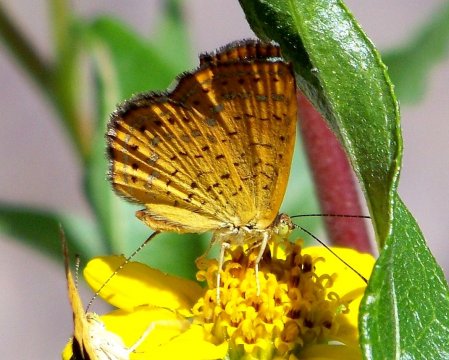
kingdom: Animalia
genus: Calephelis
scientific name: Calephelis arizonensis
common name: Arizona Metalmark
